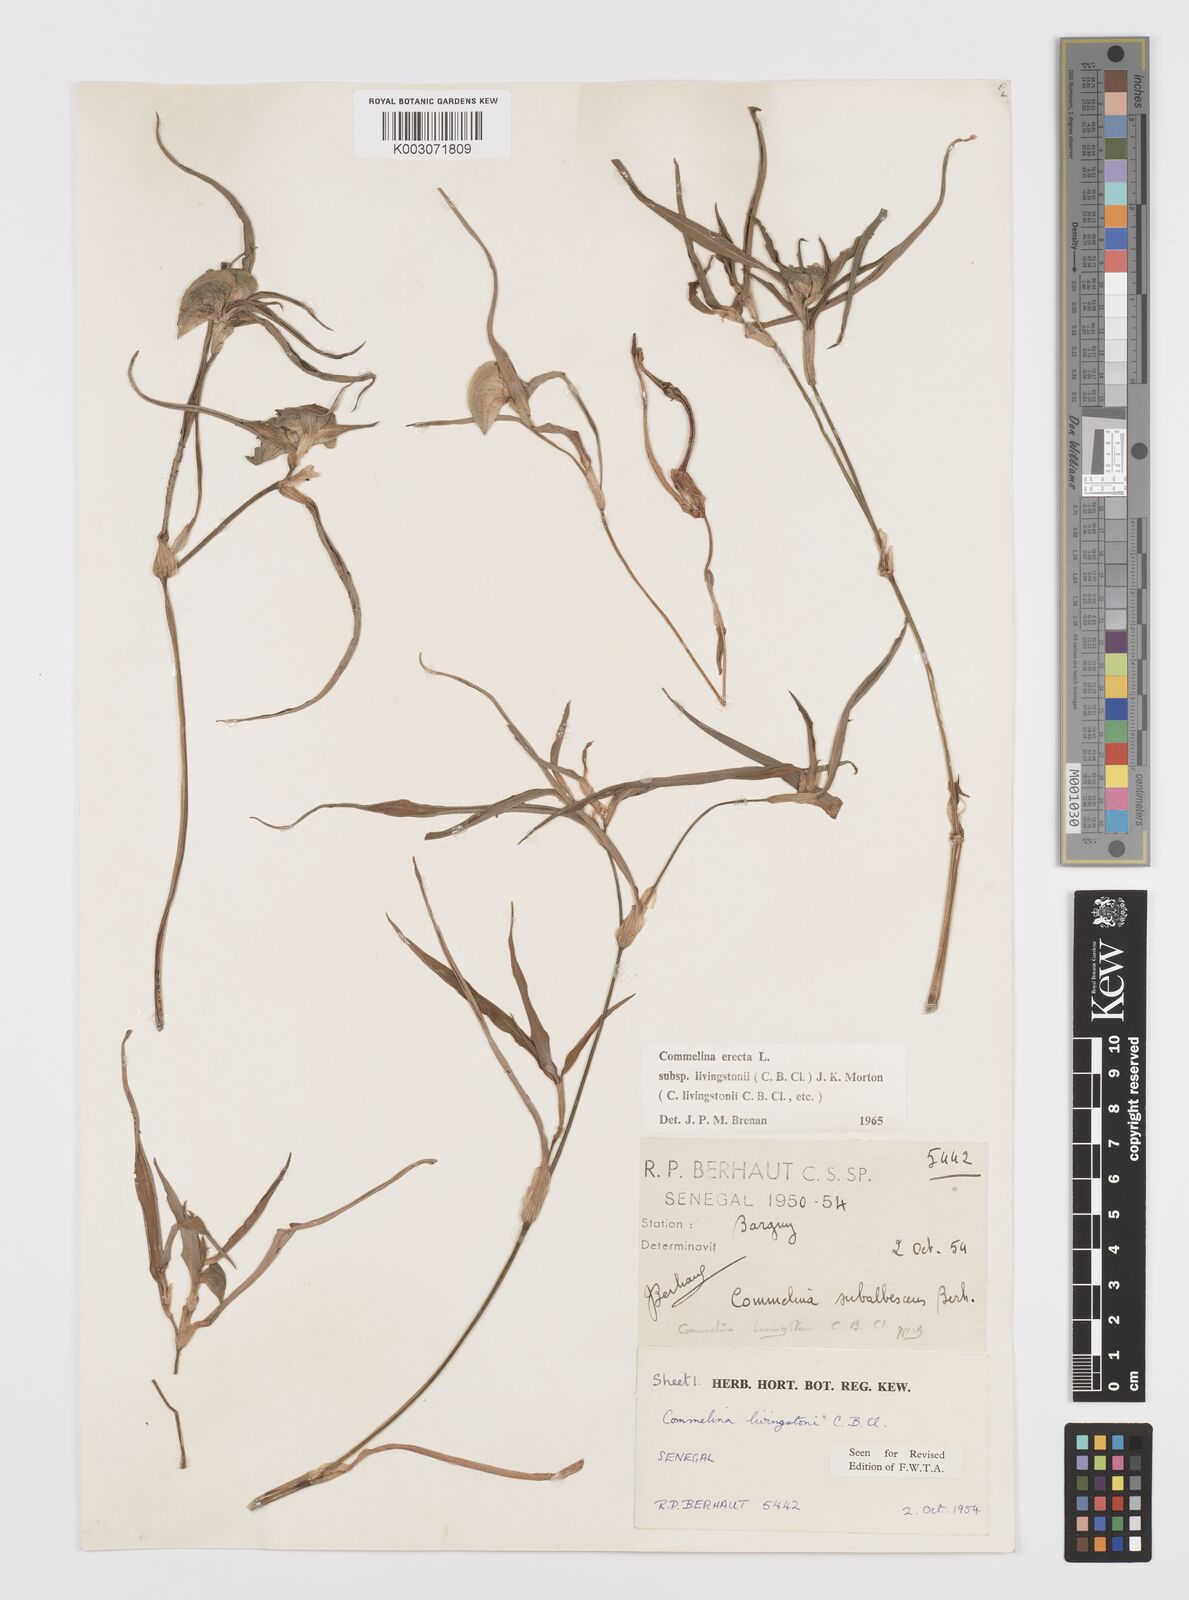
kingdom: Plantae
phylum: Tracheophyta
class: Liliopsida
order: Commelinales
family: Commelinaceae
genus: Commelina
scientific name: Commelina erecta
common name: Blousel blommetjie
